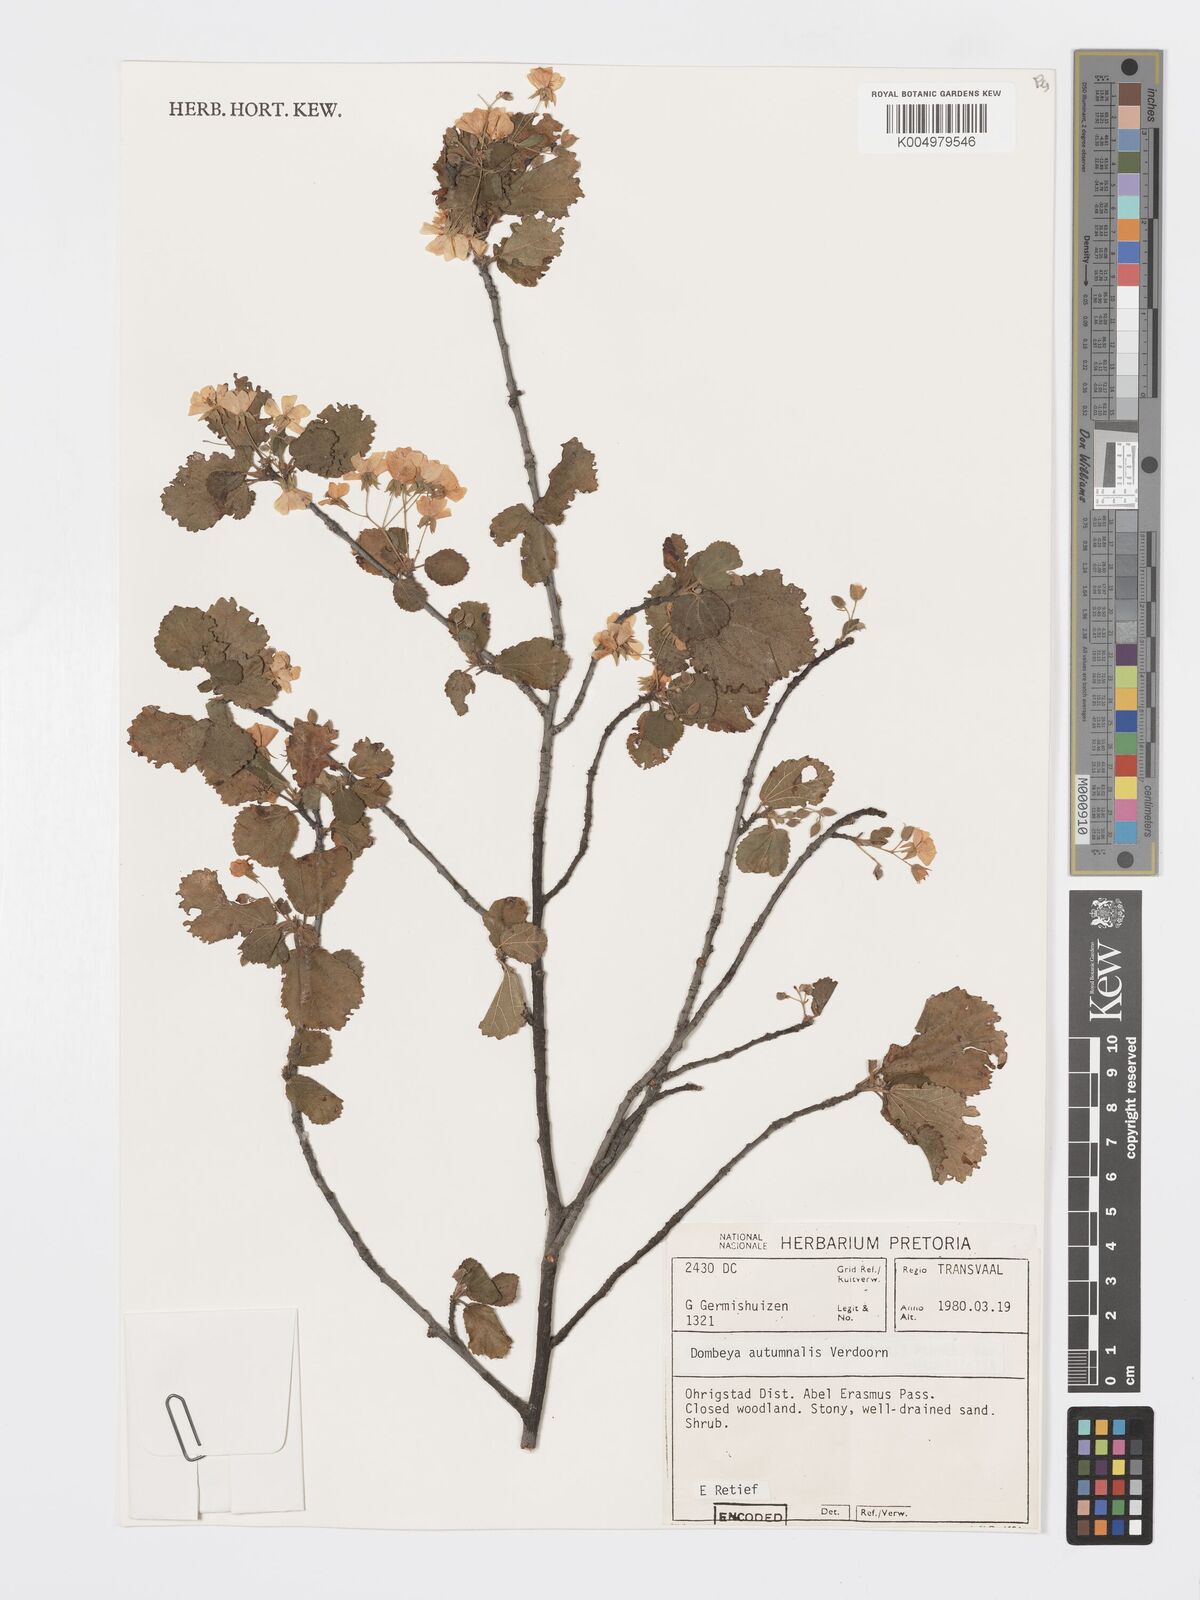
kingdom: Plantae
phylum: Tracheophyta
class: Magnoliopsida
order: Malvales
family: Malvaceae
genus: Dombeya
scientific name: Dombeya autumnalis
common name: Rock dombeya
